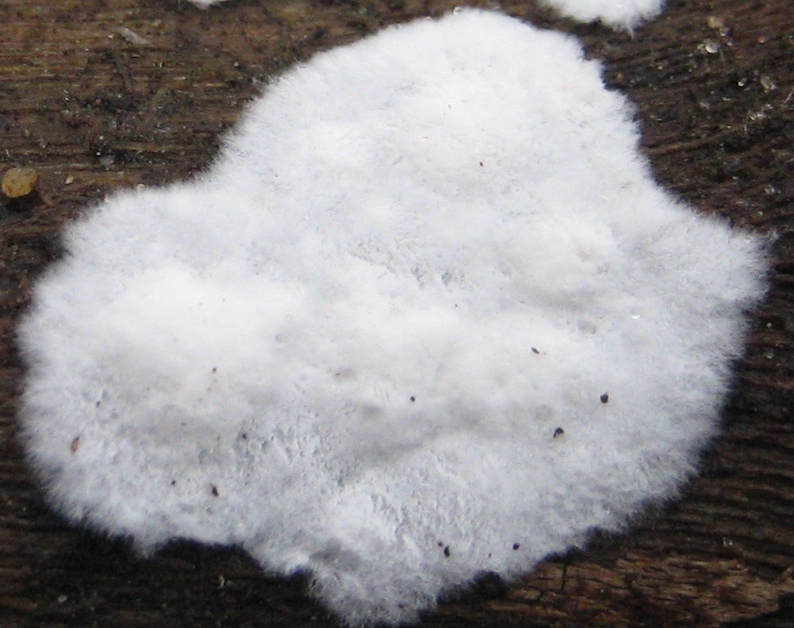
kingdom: Fungi
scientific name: Fungi
